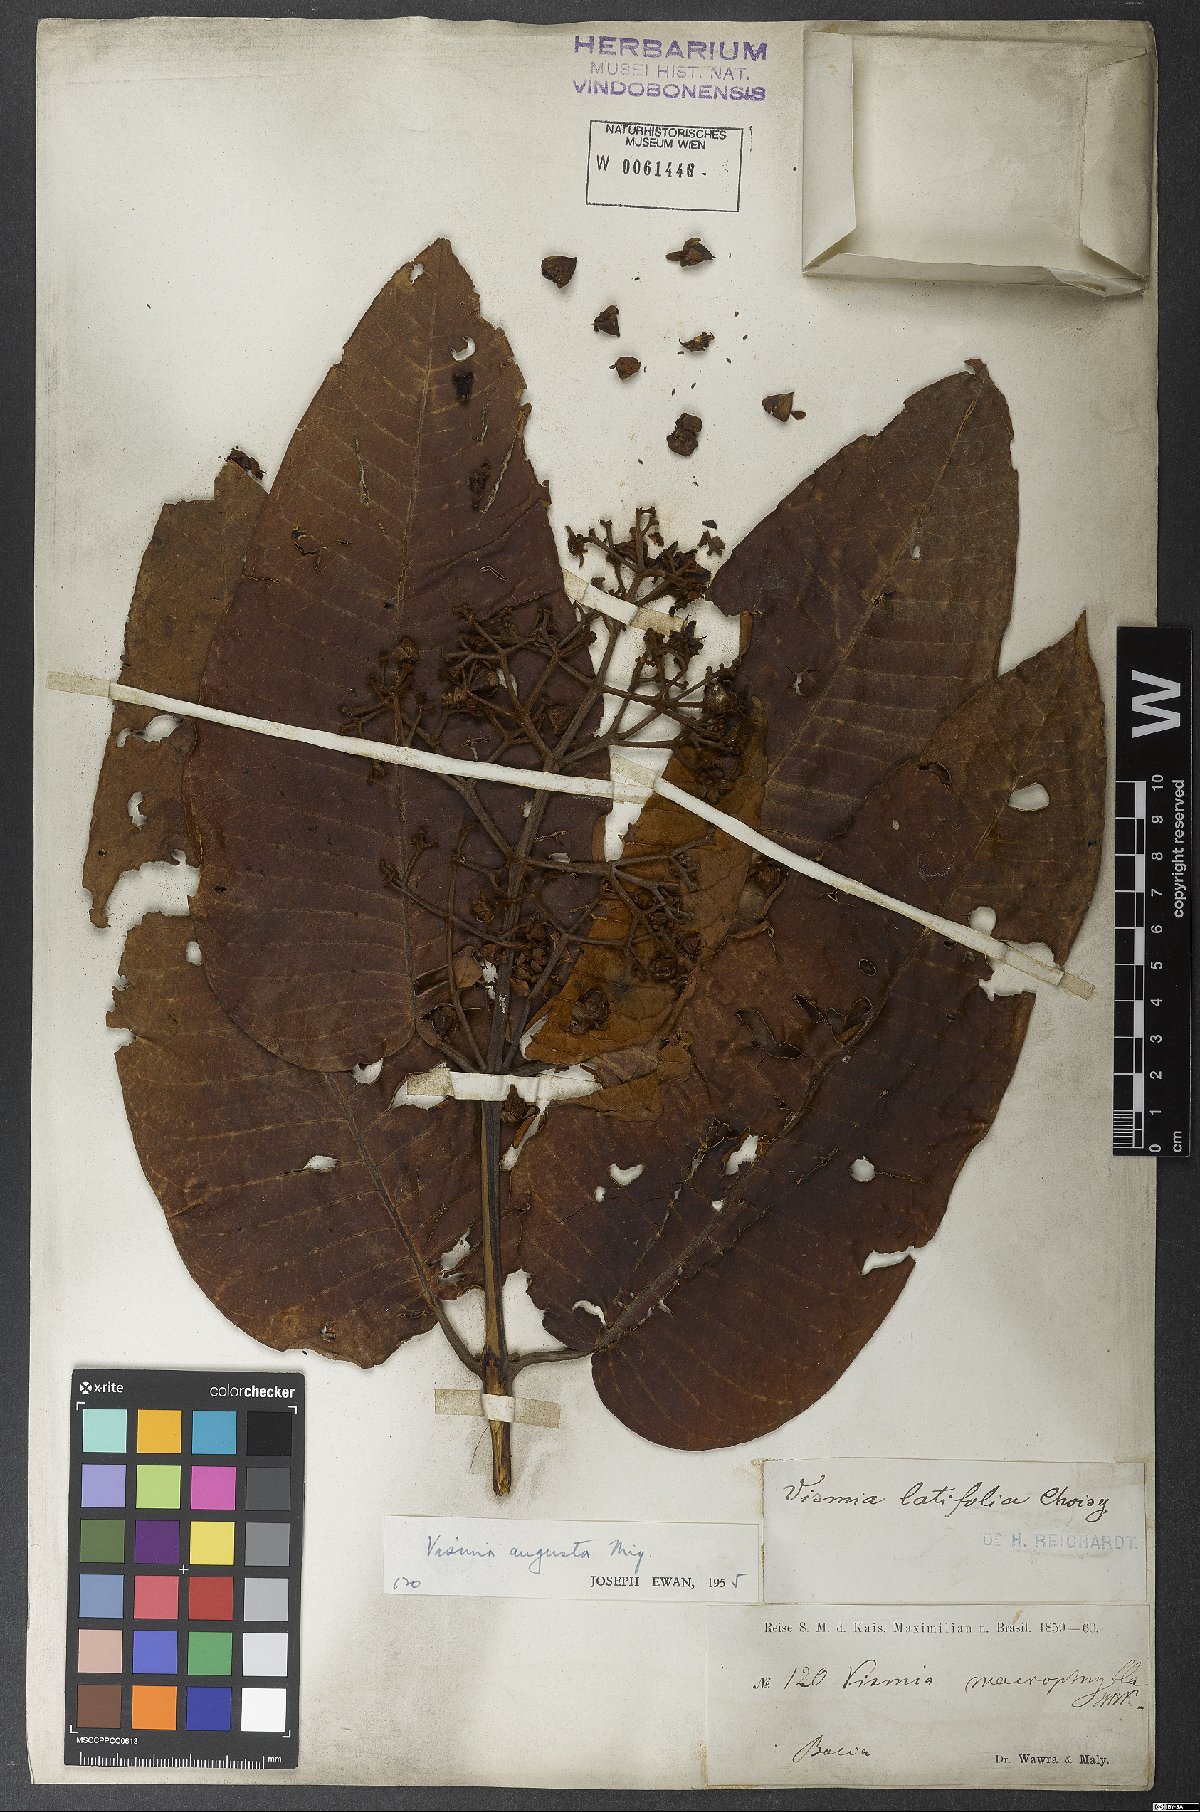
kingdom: Plantae
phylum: Tracheophyta
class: Magnoliopsida
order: Malpighiales
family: Hypericaceae
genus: Vismia
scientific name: Vismia macrophylla
